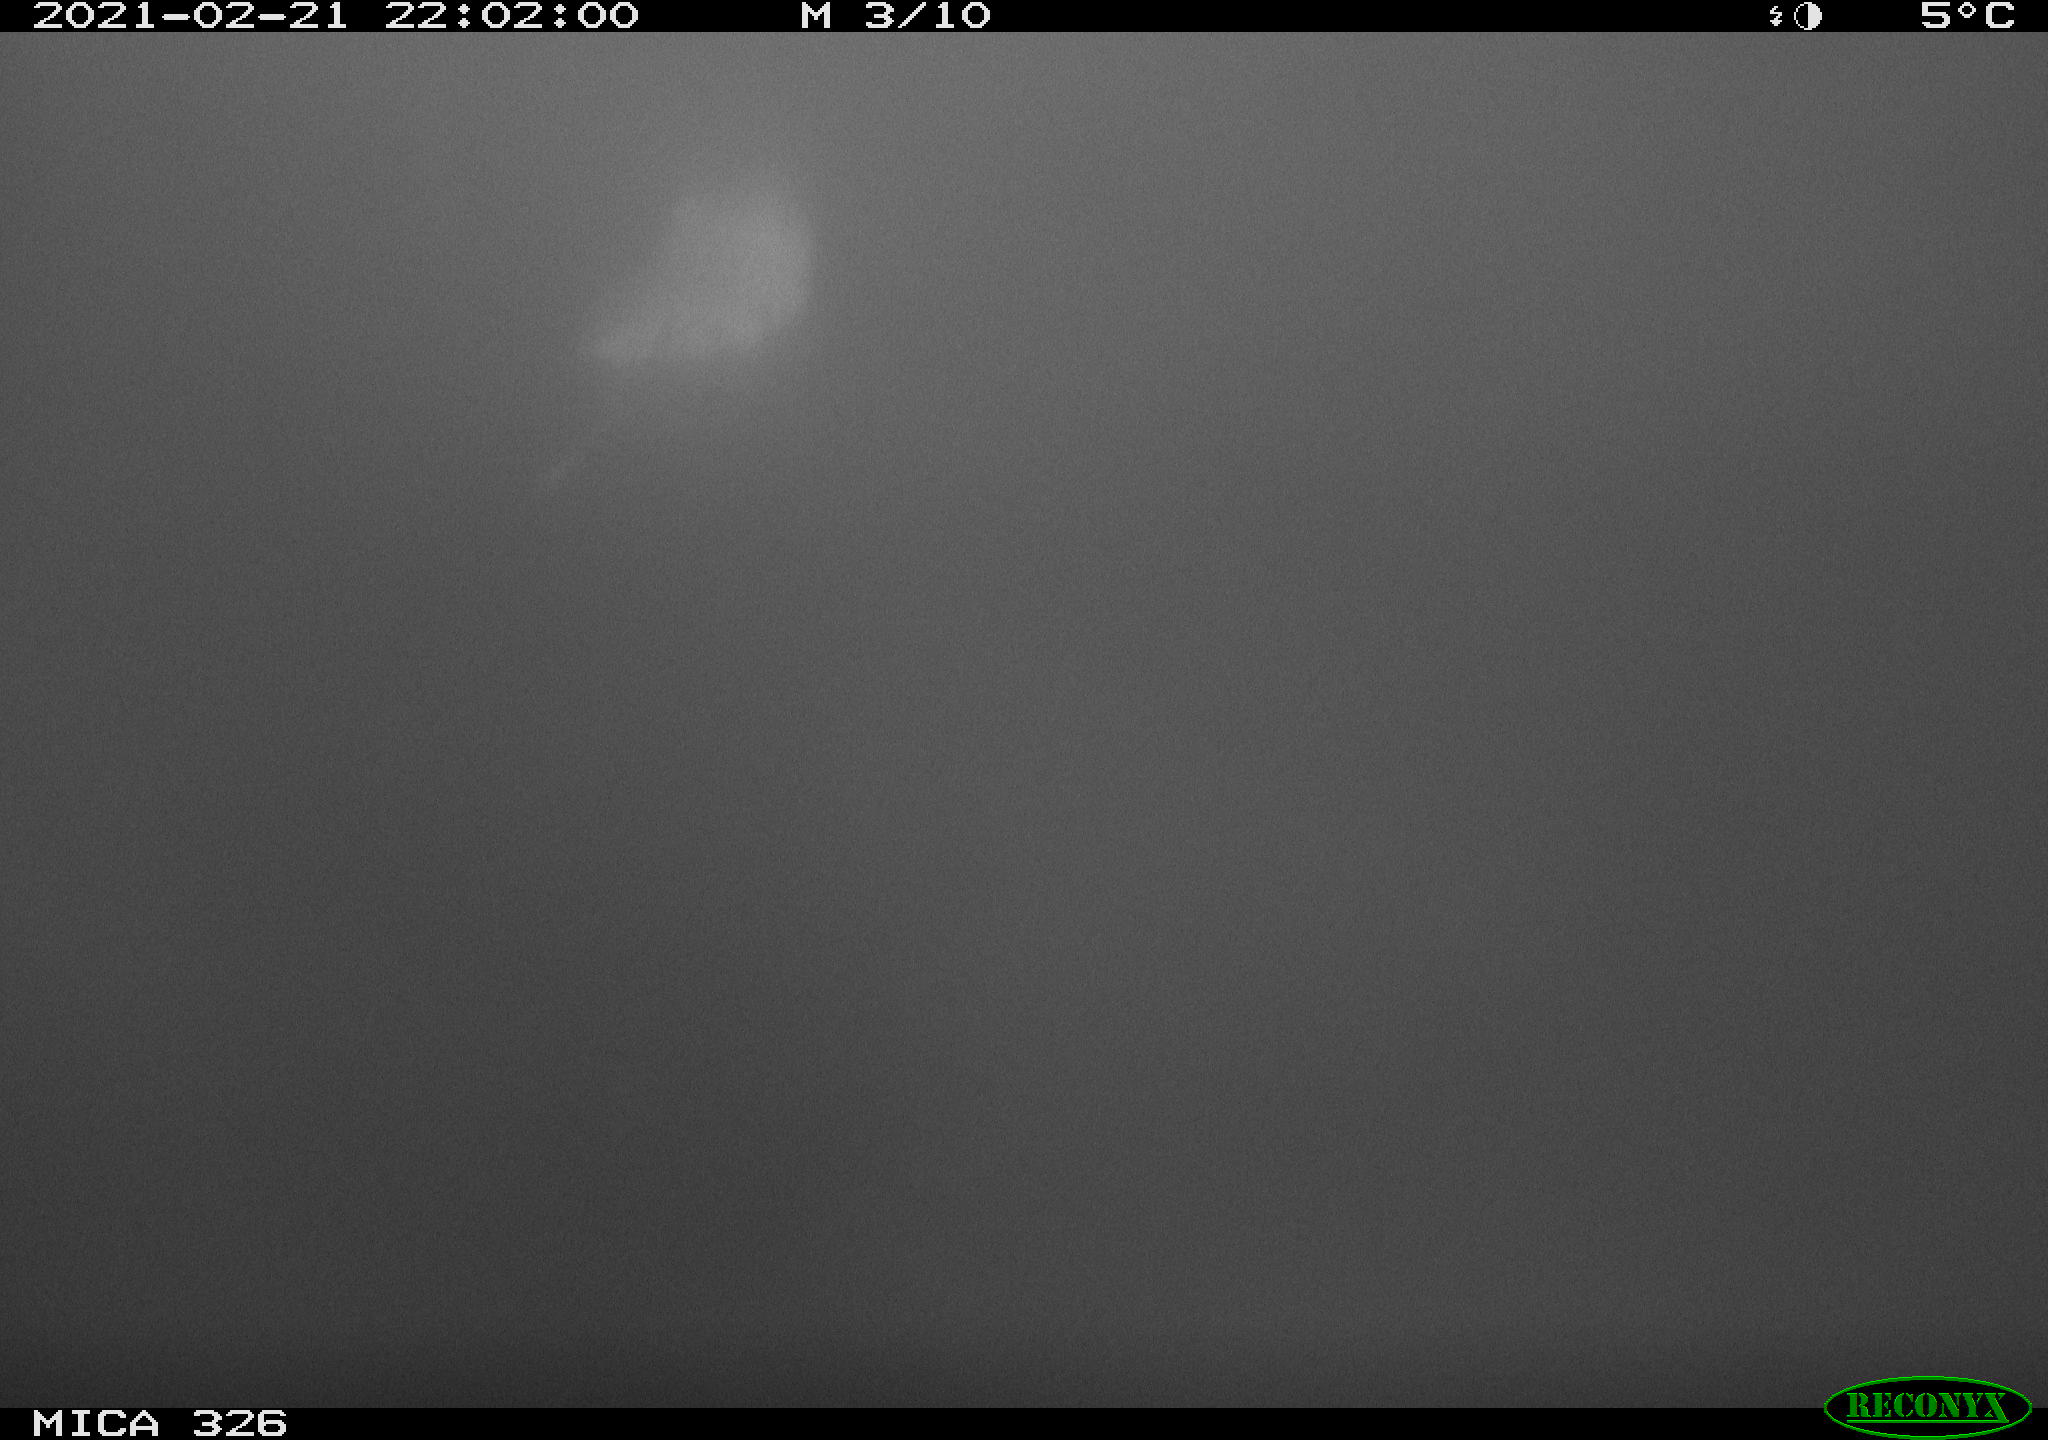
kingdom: Animalia
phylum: Chordata
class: Mammalia
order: Rodentia
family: Cricetidae
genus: Ondatra
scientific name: Ondatra zibethicus
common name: Muskrat
